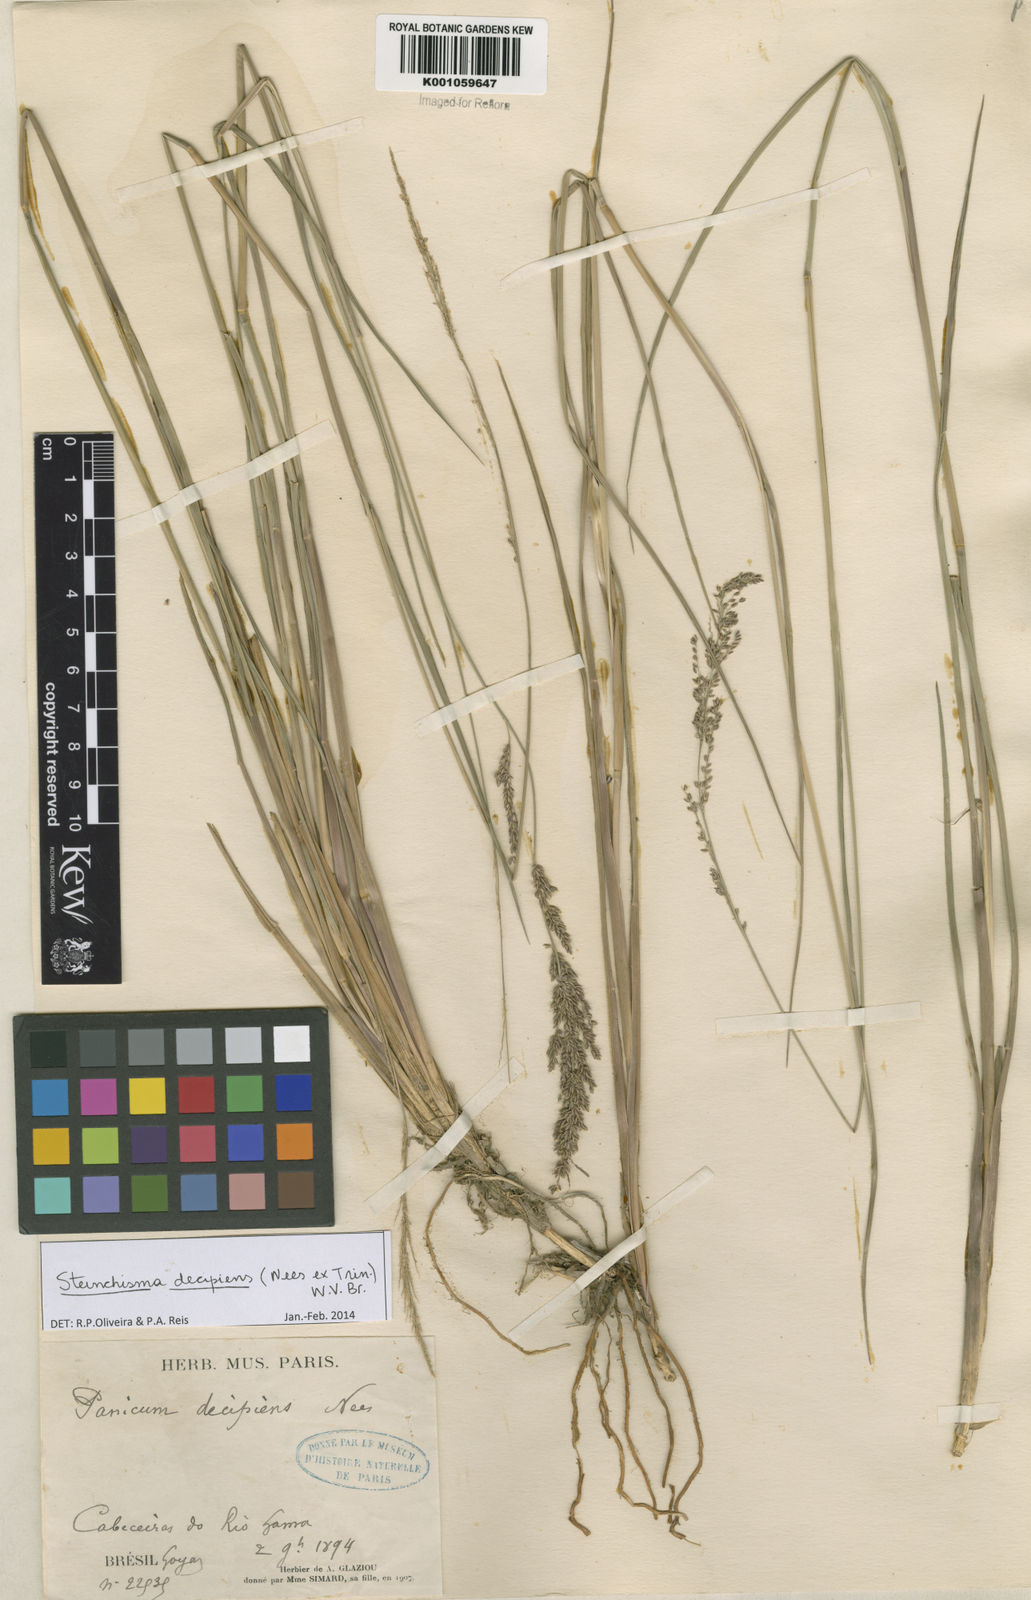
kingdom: Plantae
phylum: Tracheophyta
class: Liliopsida
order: Poales
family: Poaceae
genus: Steinchisma
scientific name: Steinchisma decipiens
